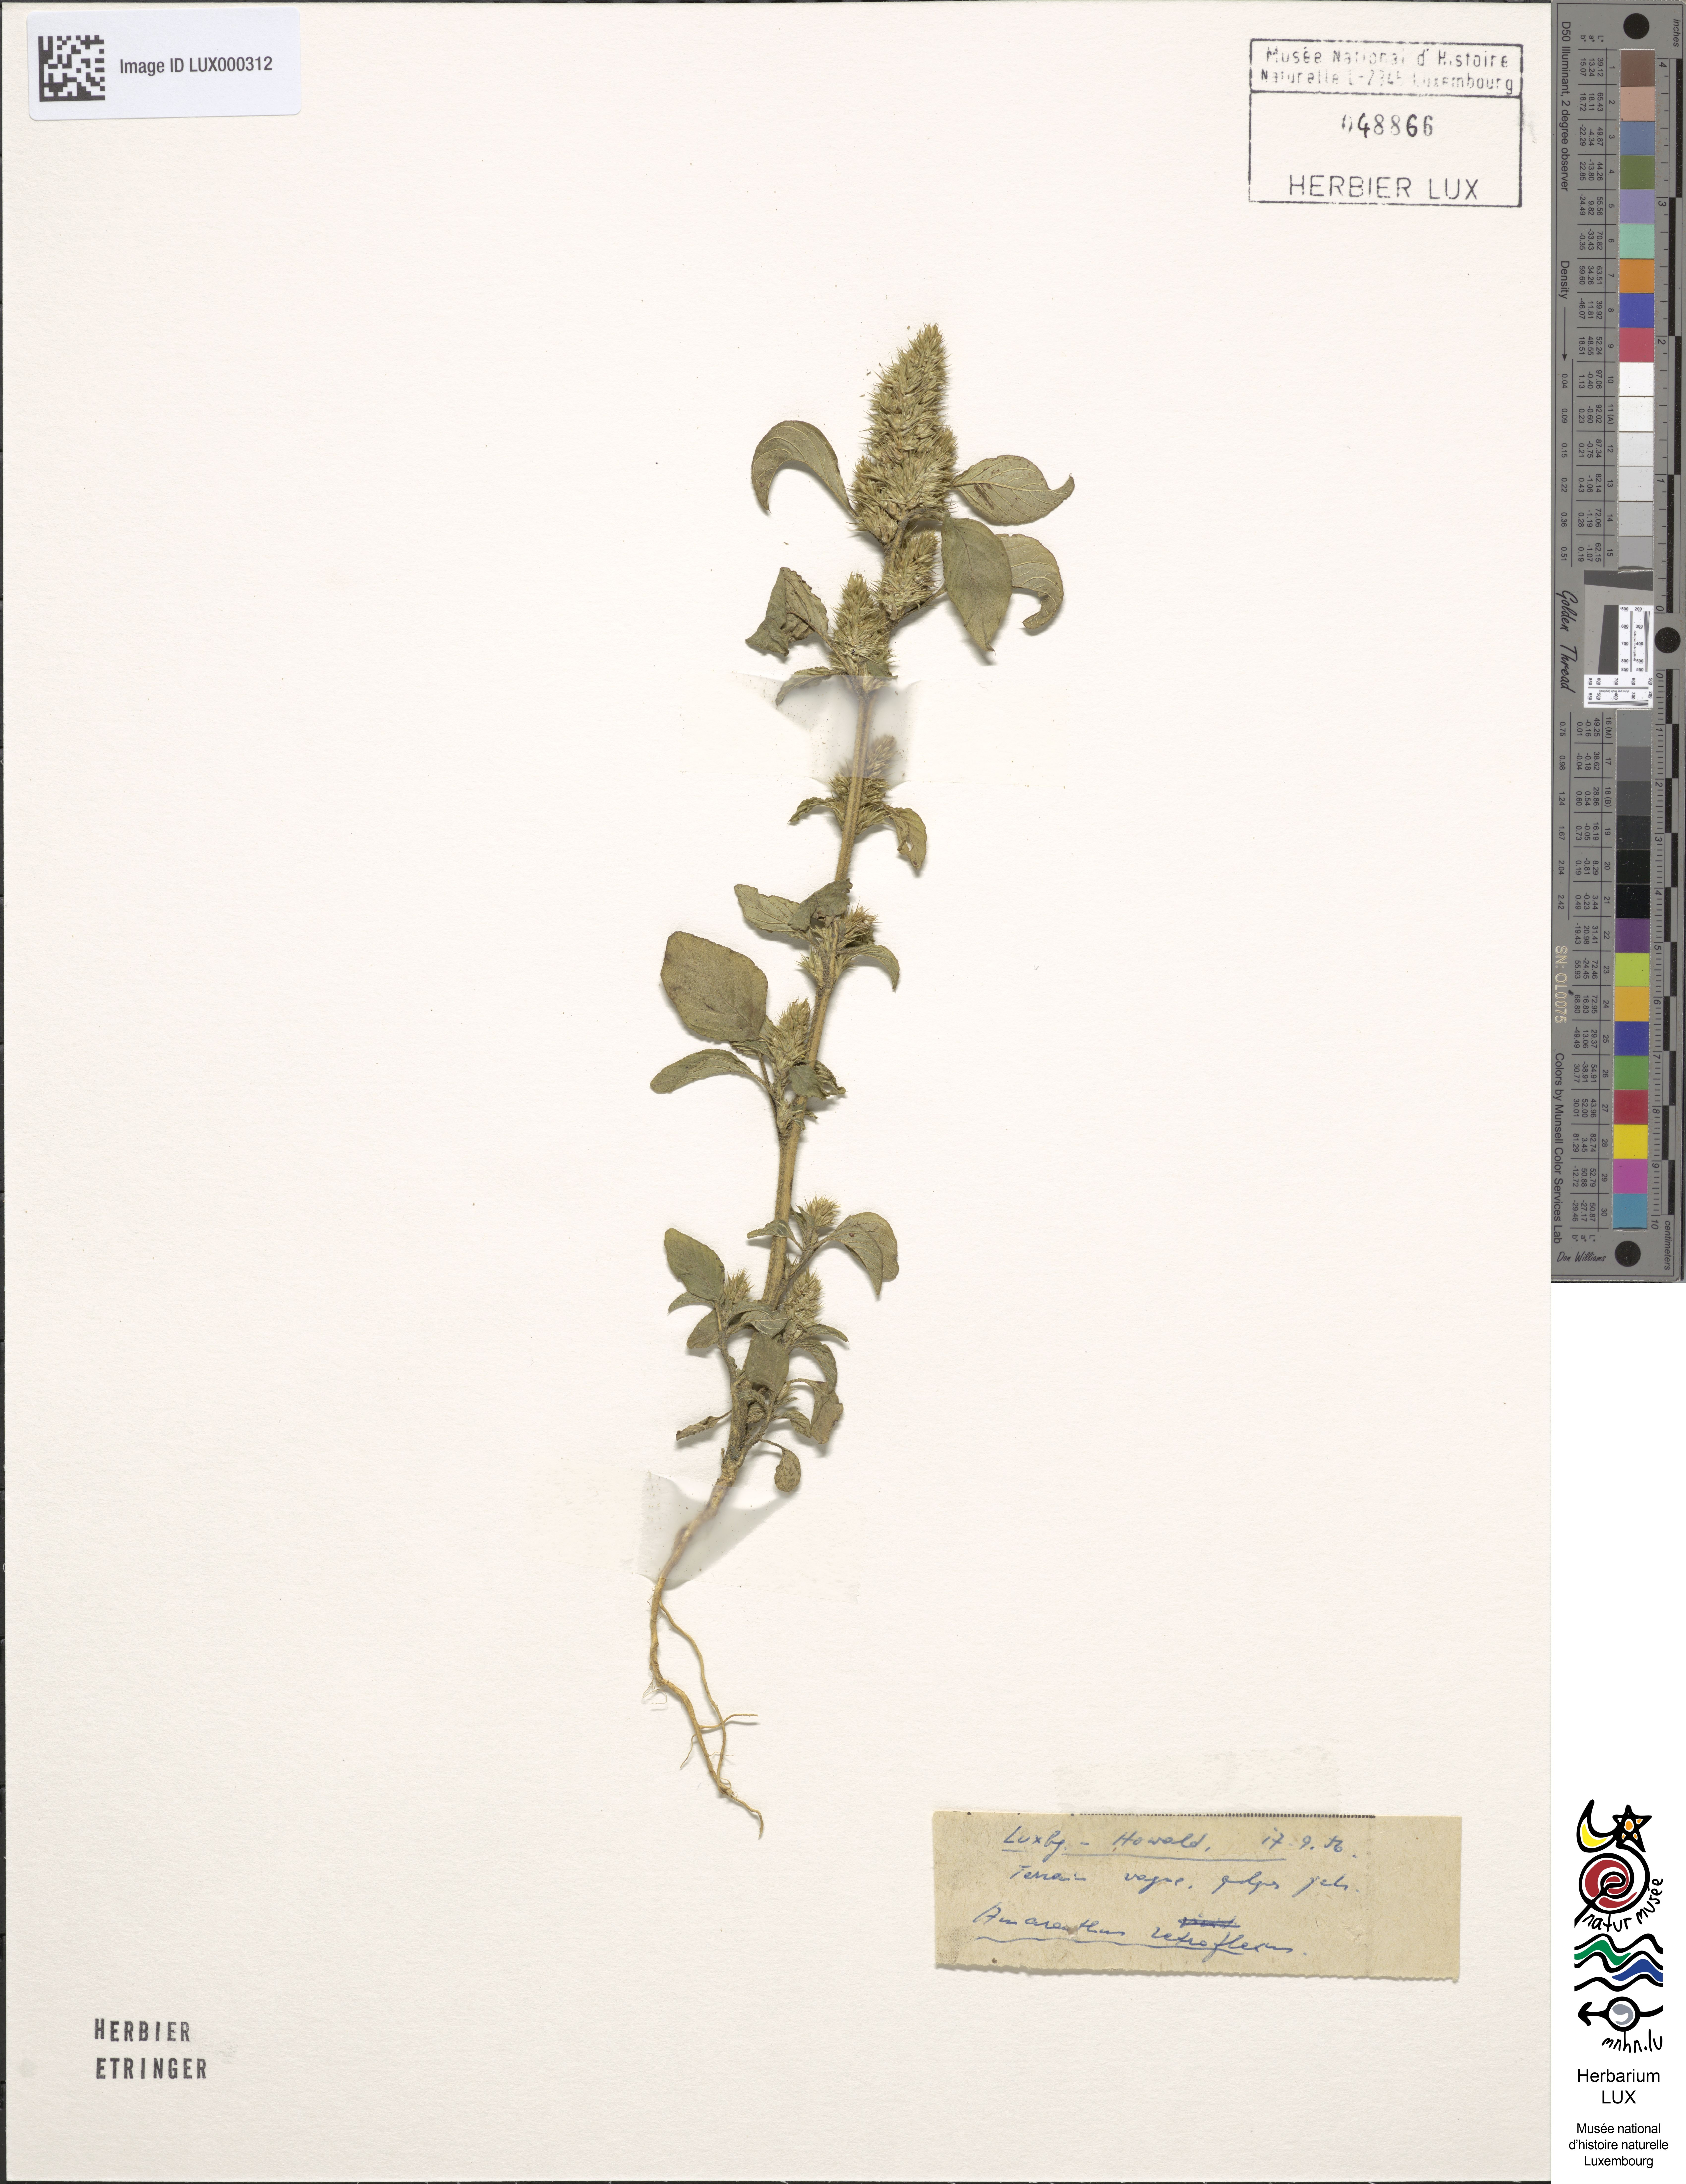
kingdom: Plantae
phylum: Tracheophyta
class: Magnoliopsida
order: Caryophyllales
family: Amaranthaceae
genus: Amaranthus
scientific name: Amaranthus retroflexus
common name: Redroot amaranth
